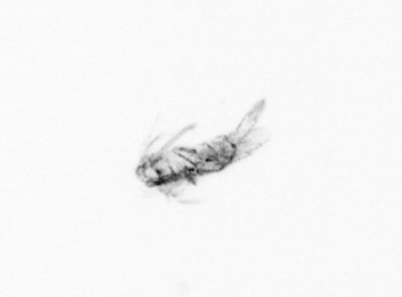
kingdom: Animalia
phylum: Arthropoda
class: Maxillopoda
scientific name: Maxillopoda
